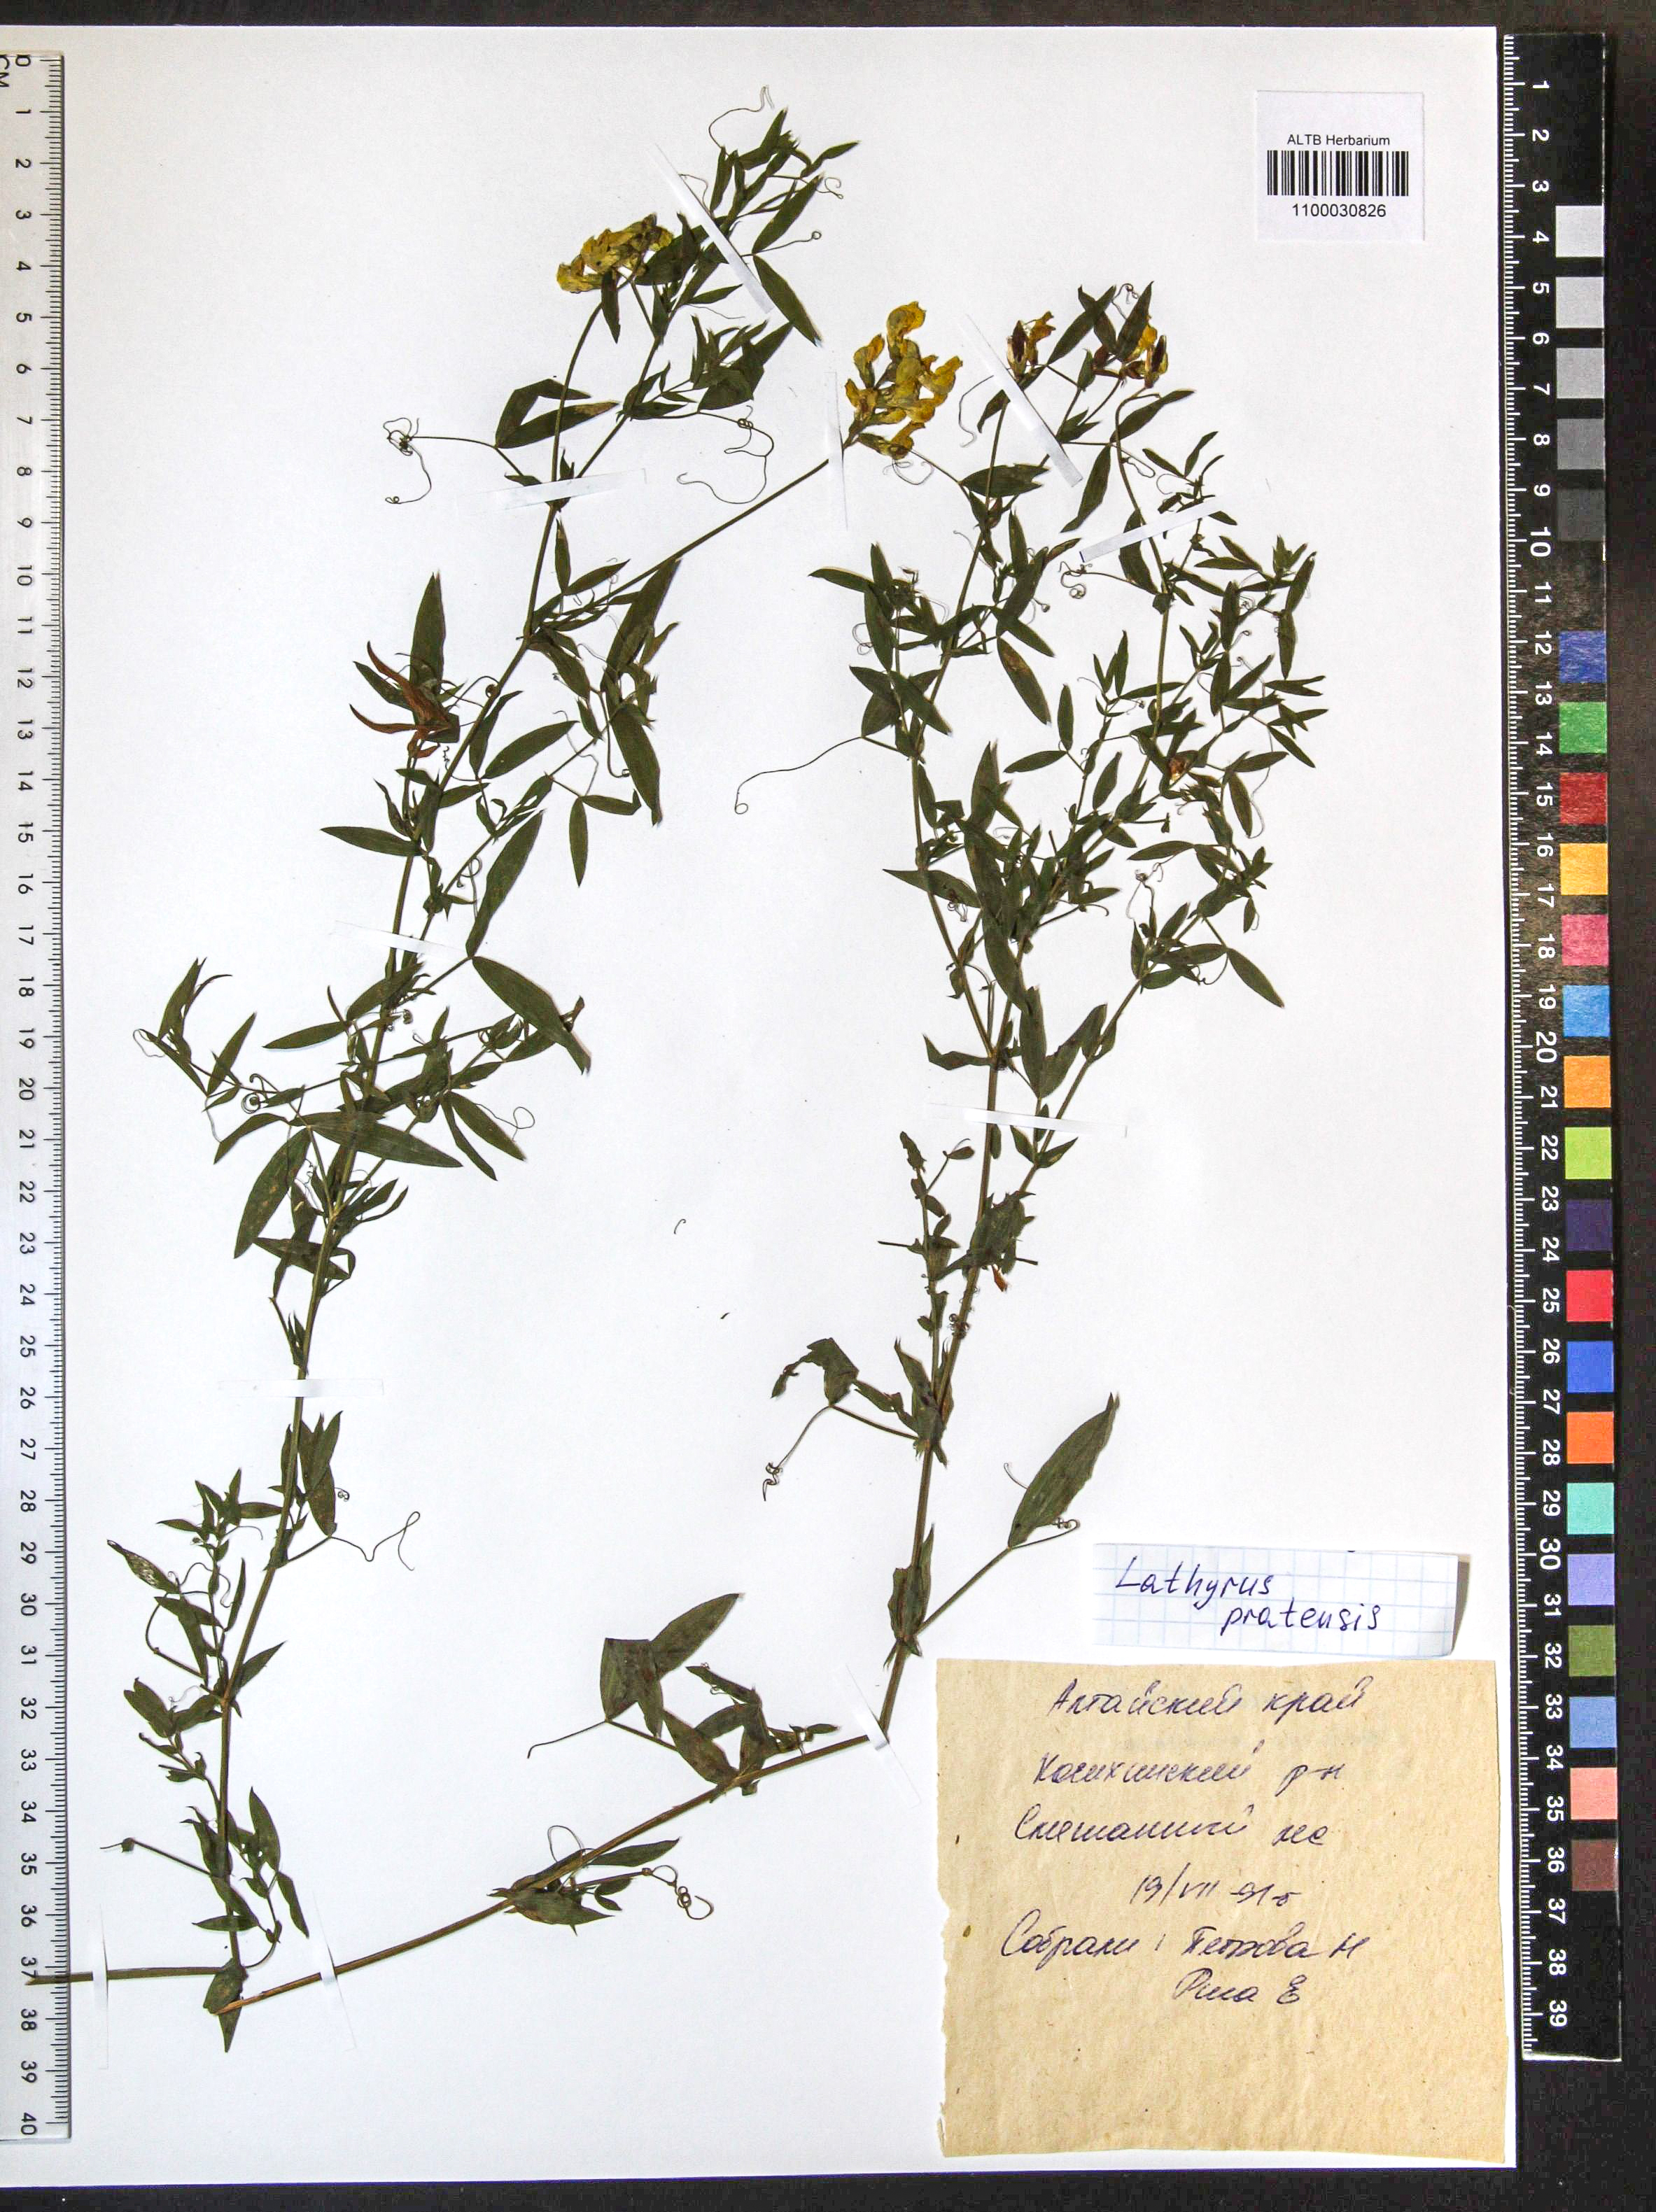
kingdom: Plantae
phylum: Tracheophyta
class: Magnoliopsida
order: Fabales
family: Fabaceae
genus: Lathyrus
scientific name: Lathyrus pratensis
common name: Meadow vetchling
